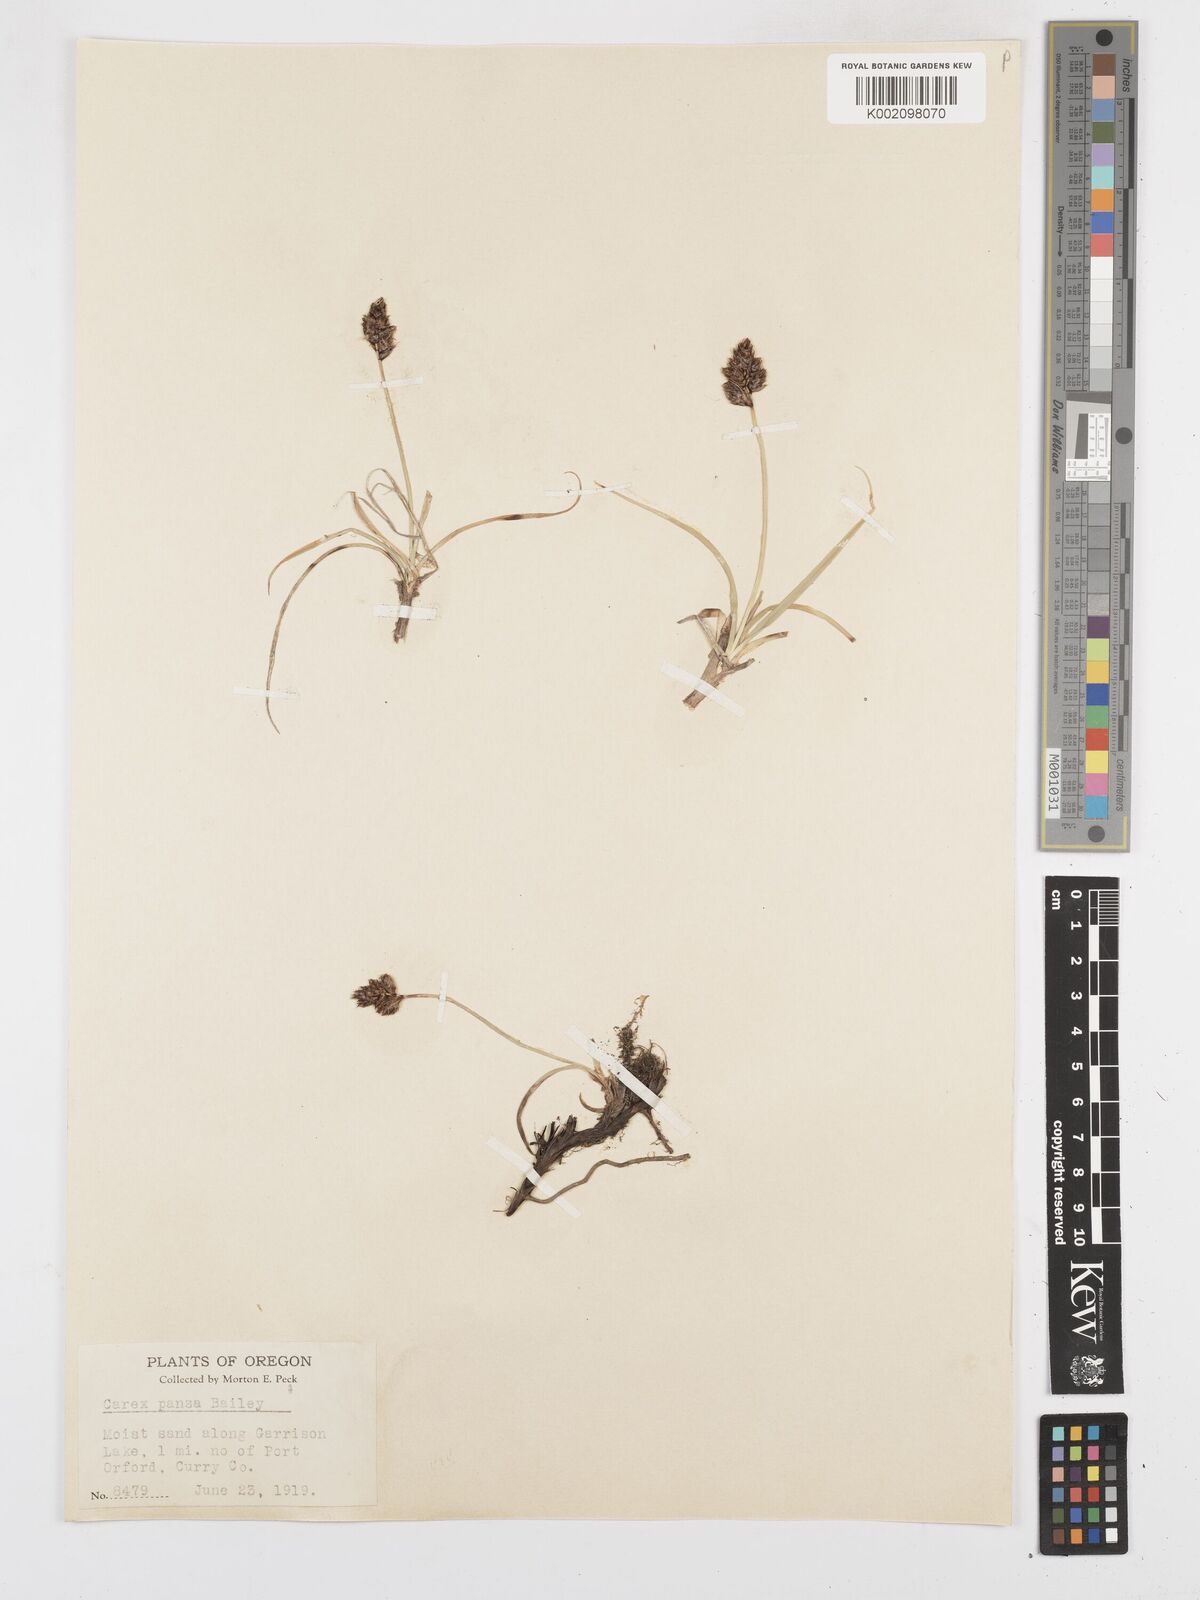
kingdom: Plantae
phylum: Tracheophyta
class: Liliopsida
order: Poales
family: Cyperaceae
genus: Carex
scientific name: Carex pansa
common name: Sand sedge
